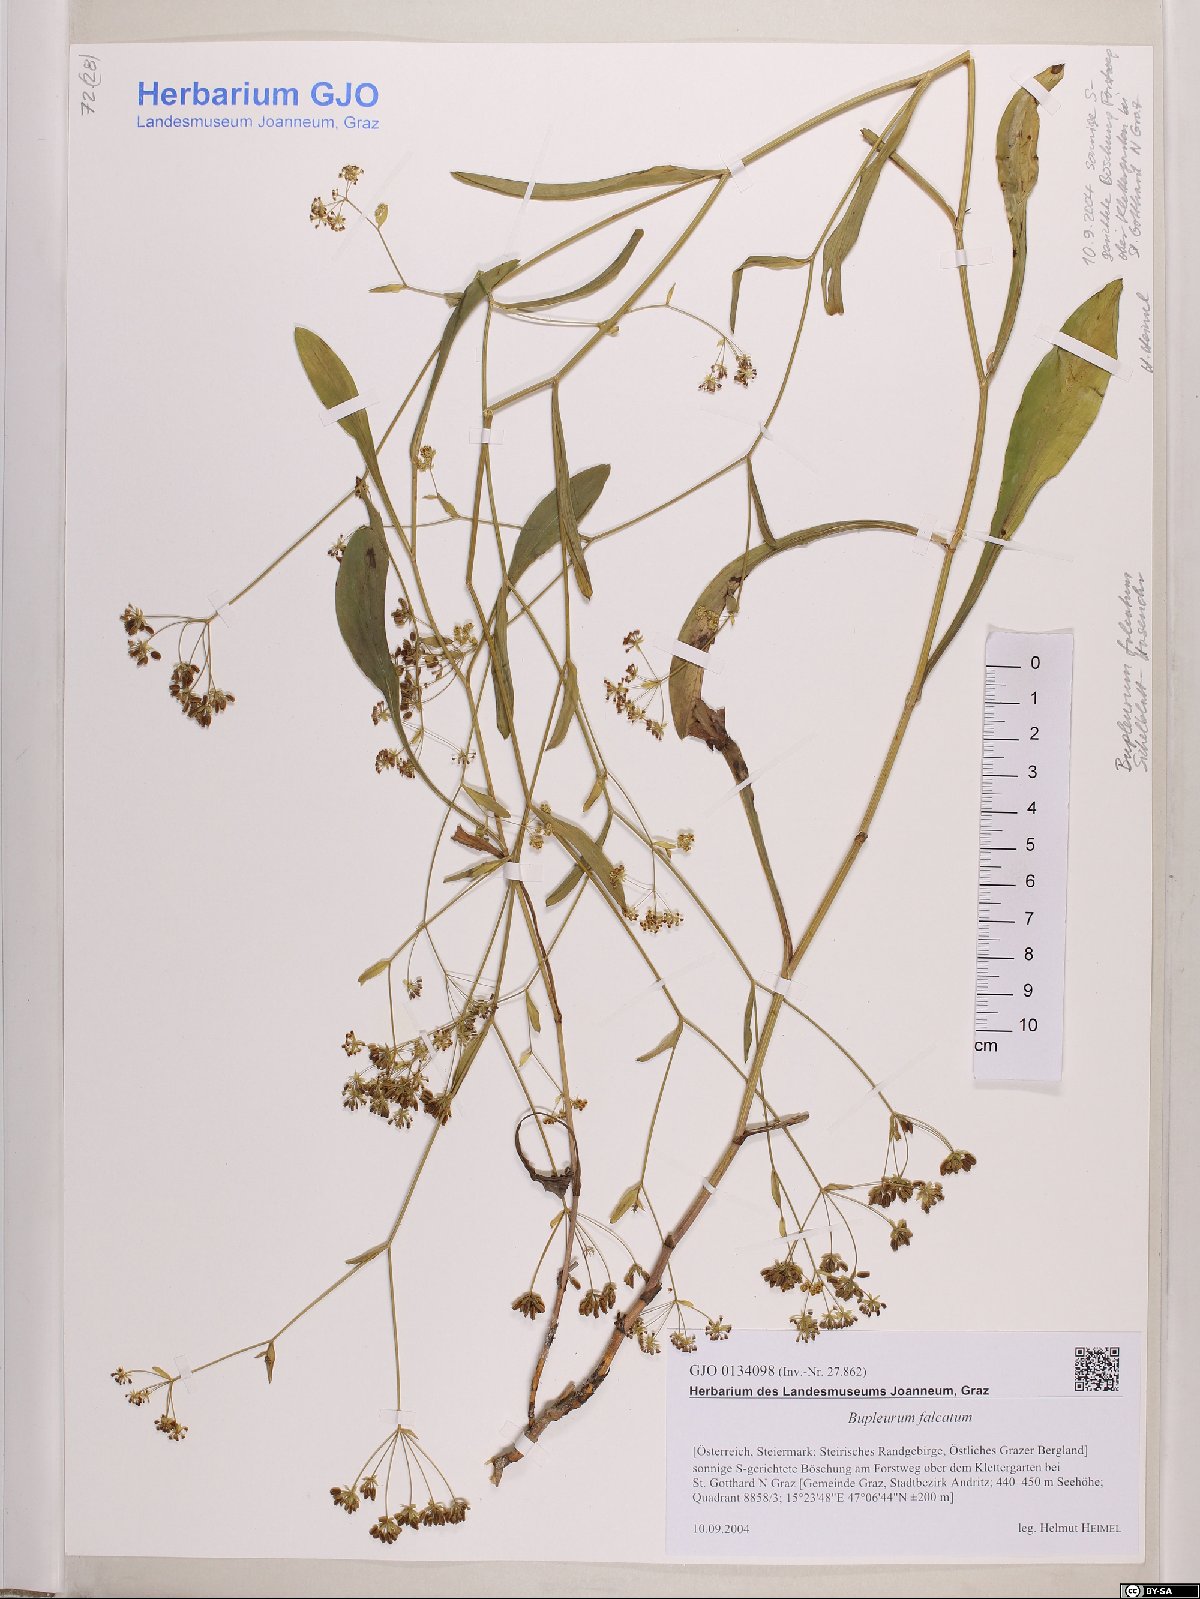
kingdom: Plantae
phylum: Tracheophyta
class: Magnoliopsida
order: Apiales
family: Apiaceae
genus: Bupleurum
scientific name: Bupleurum falcatum
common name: Sickle-leaved hare's-ear
